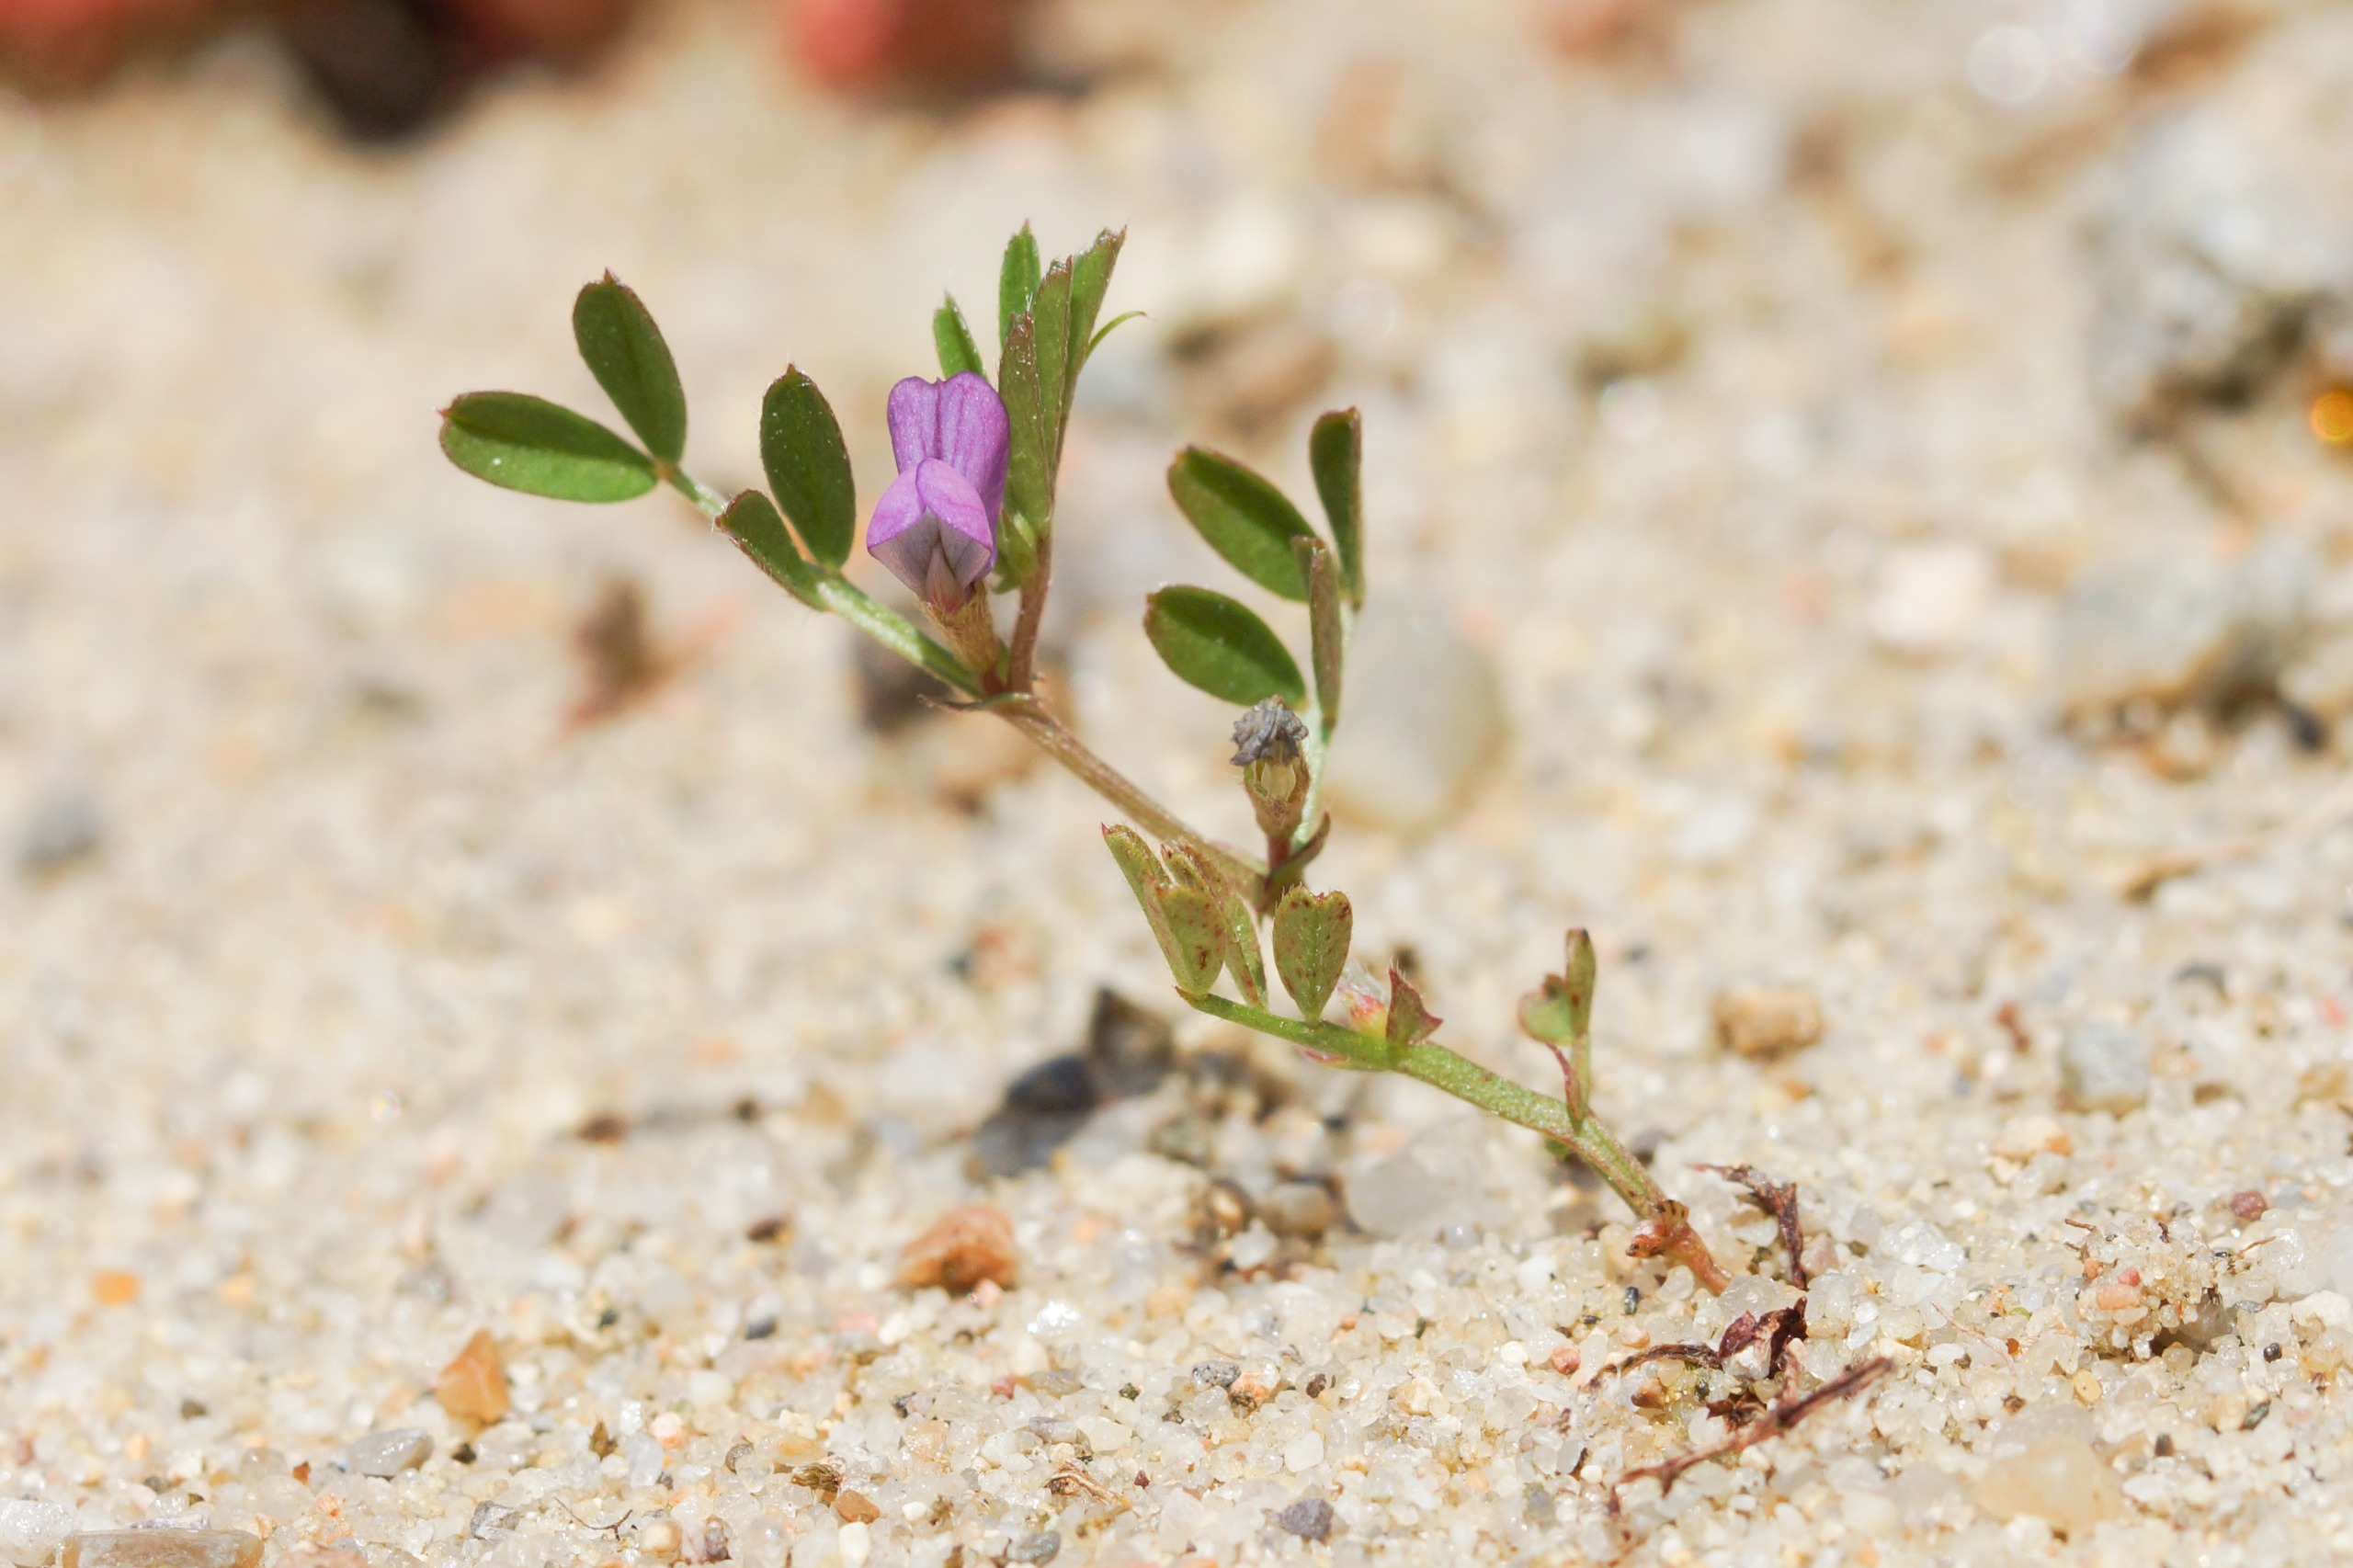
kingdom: Plantae
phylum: Tracheophyta
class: Magnoliopsida
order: Fabales
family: Fabaceae
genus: Vicia
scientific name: Vicia lathyroides
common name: Vår-vikke
